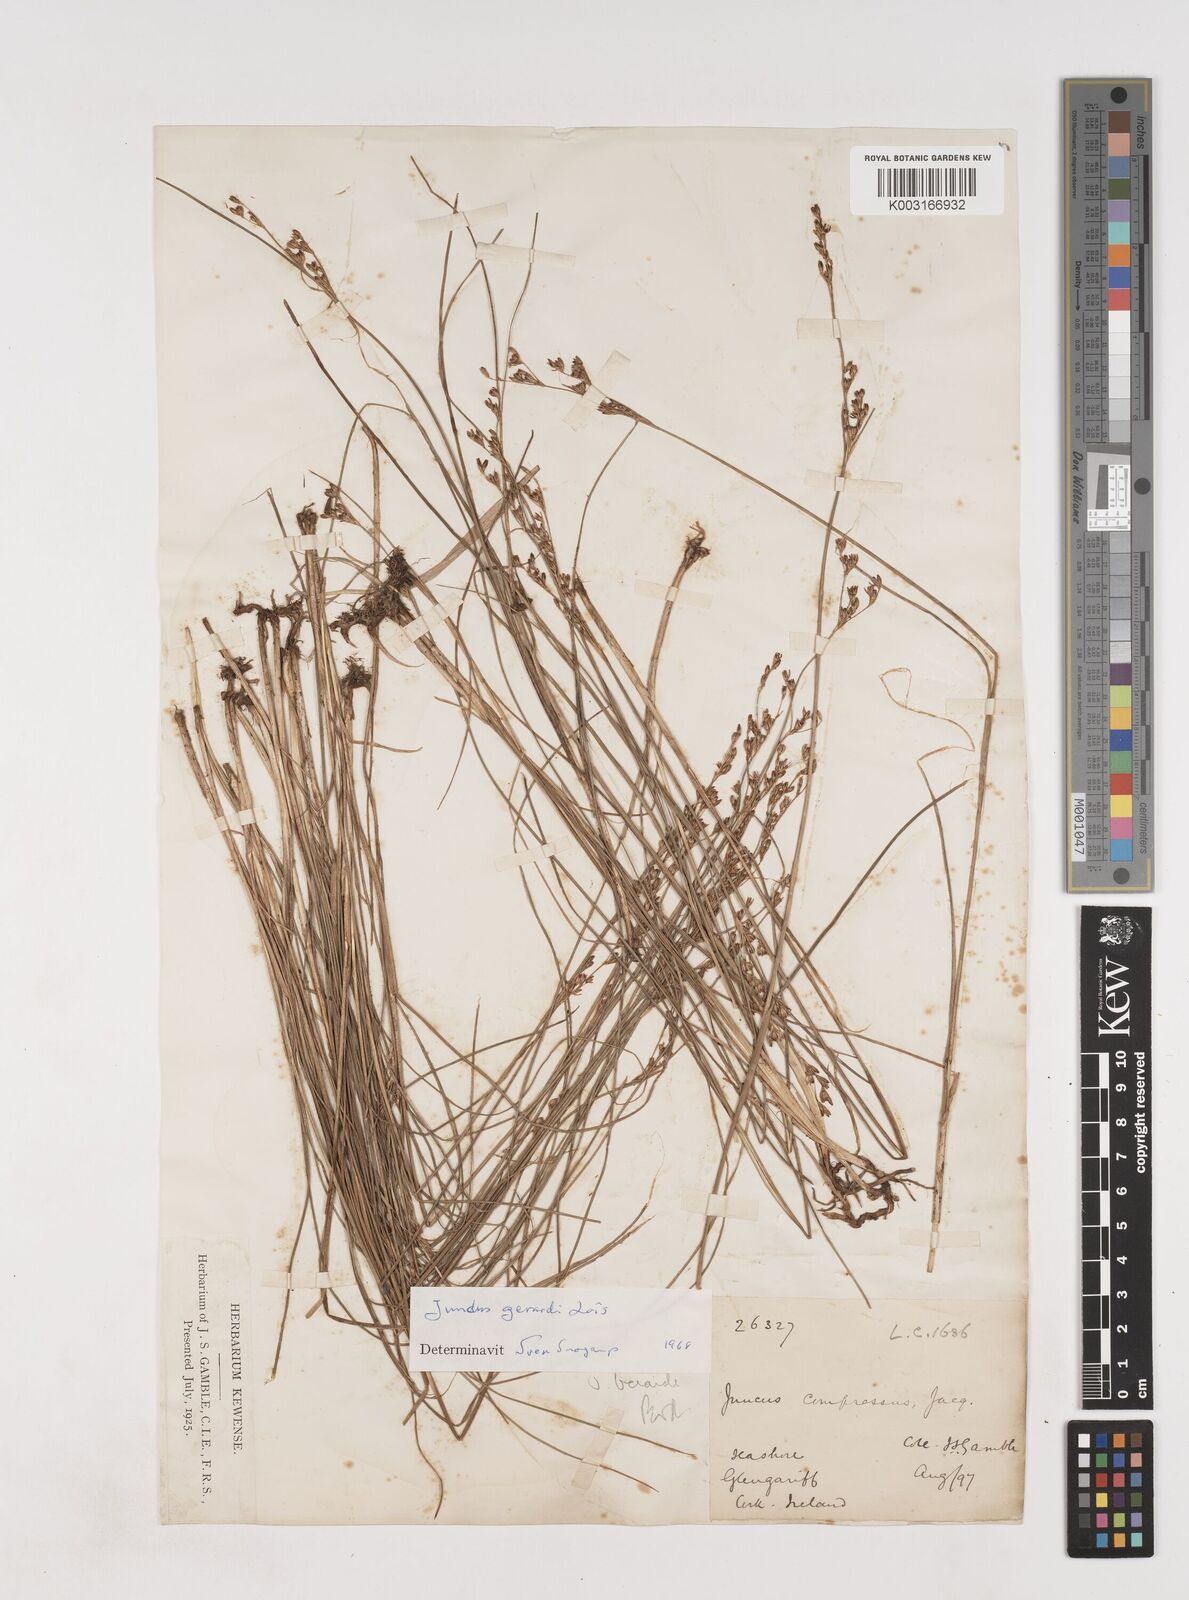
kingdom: Plantae
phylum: Tracheophyta
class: Liliopsida
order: Poales
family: Juncaceae
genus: Juncus
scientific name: Juncus gerardi
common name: Saltmarsh rush
